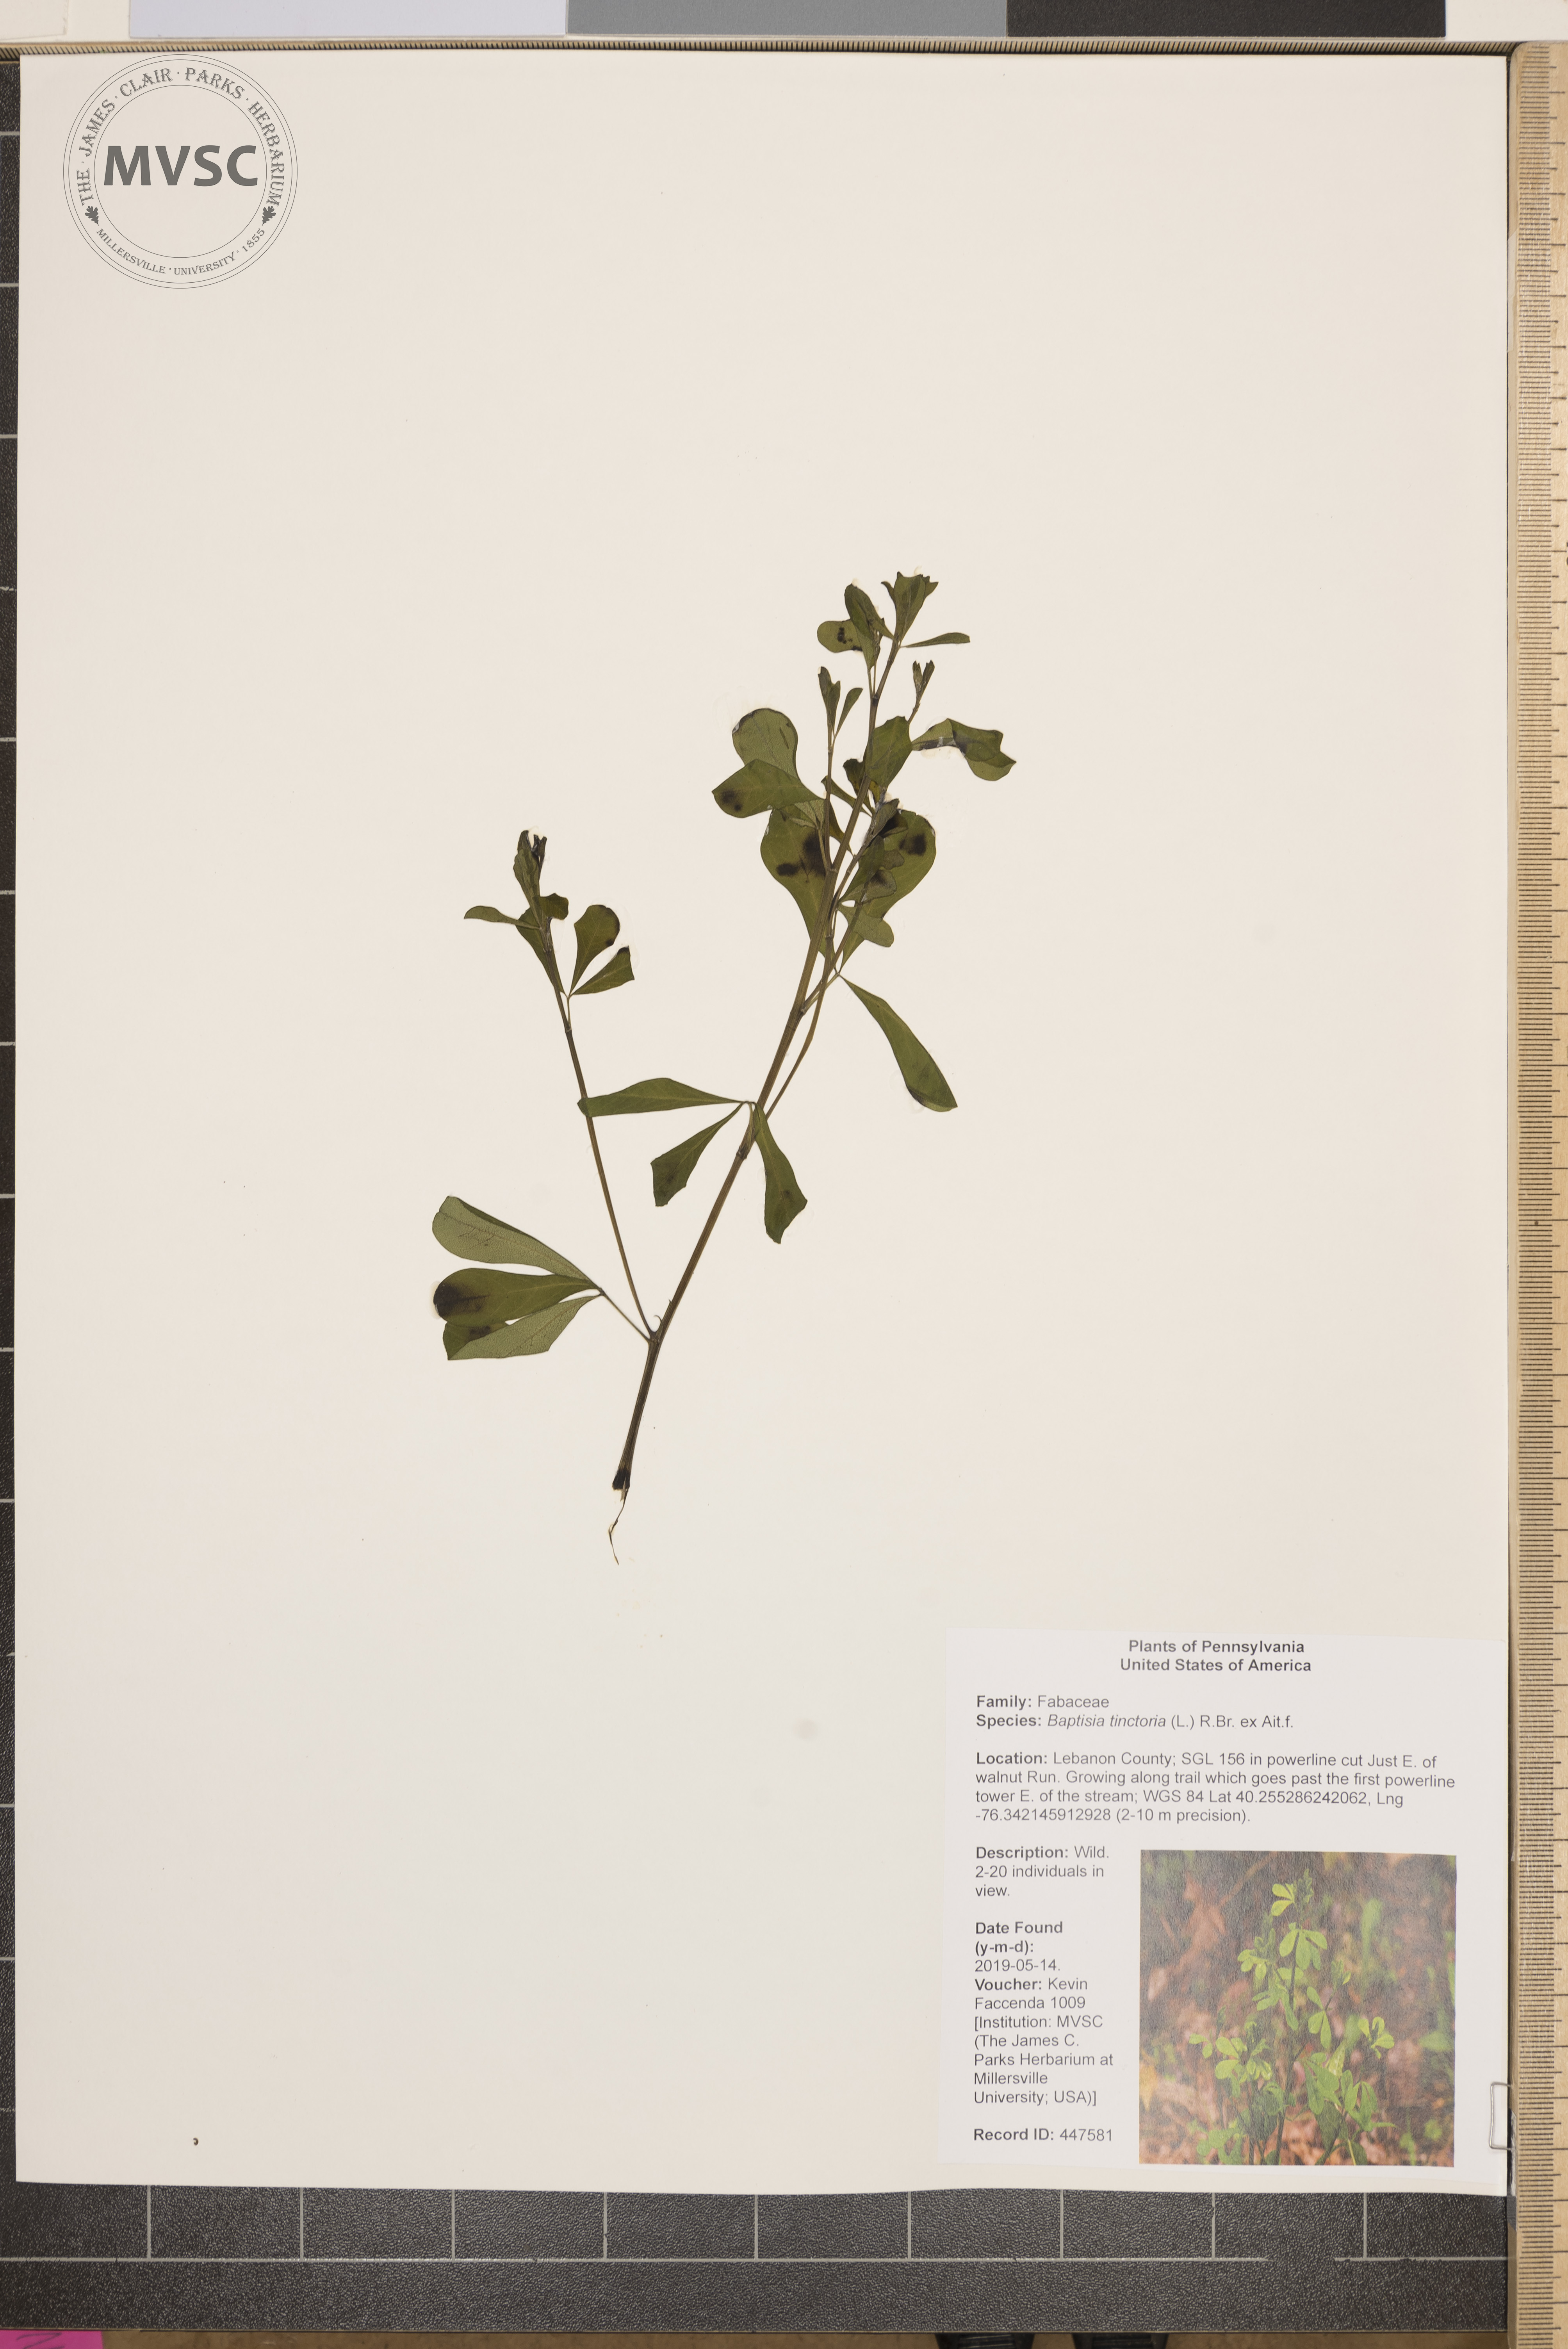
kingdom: Plantae
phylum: Tracheophyta
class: Magnoliopsida
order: Fabales
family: Fabaceae
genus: Baptisia
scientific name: Baptisia tinctoria
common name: Wild indigo
